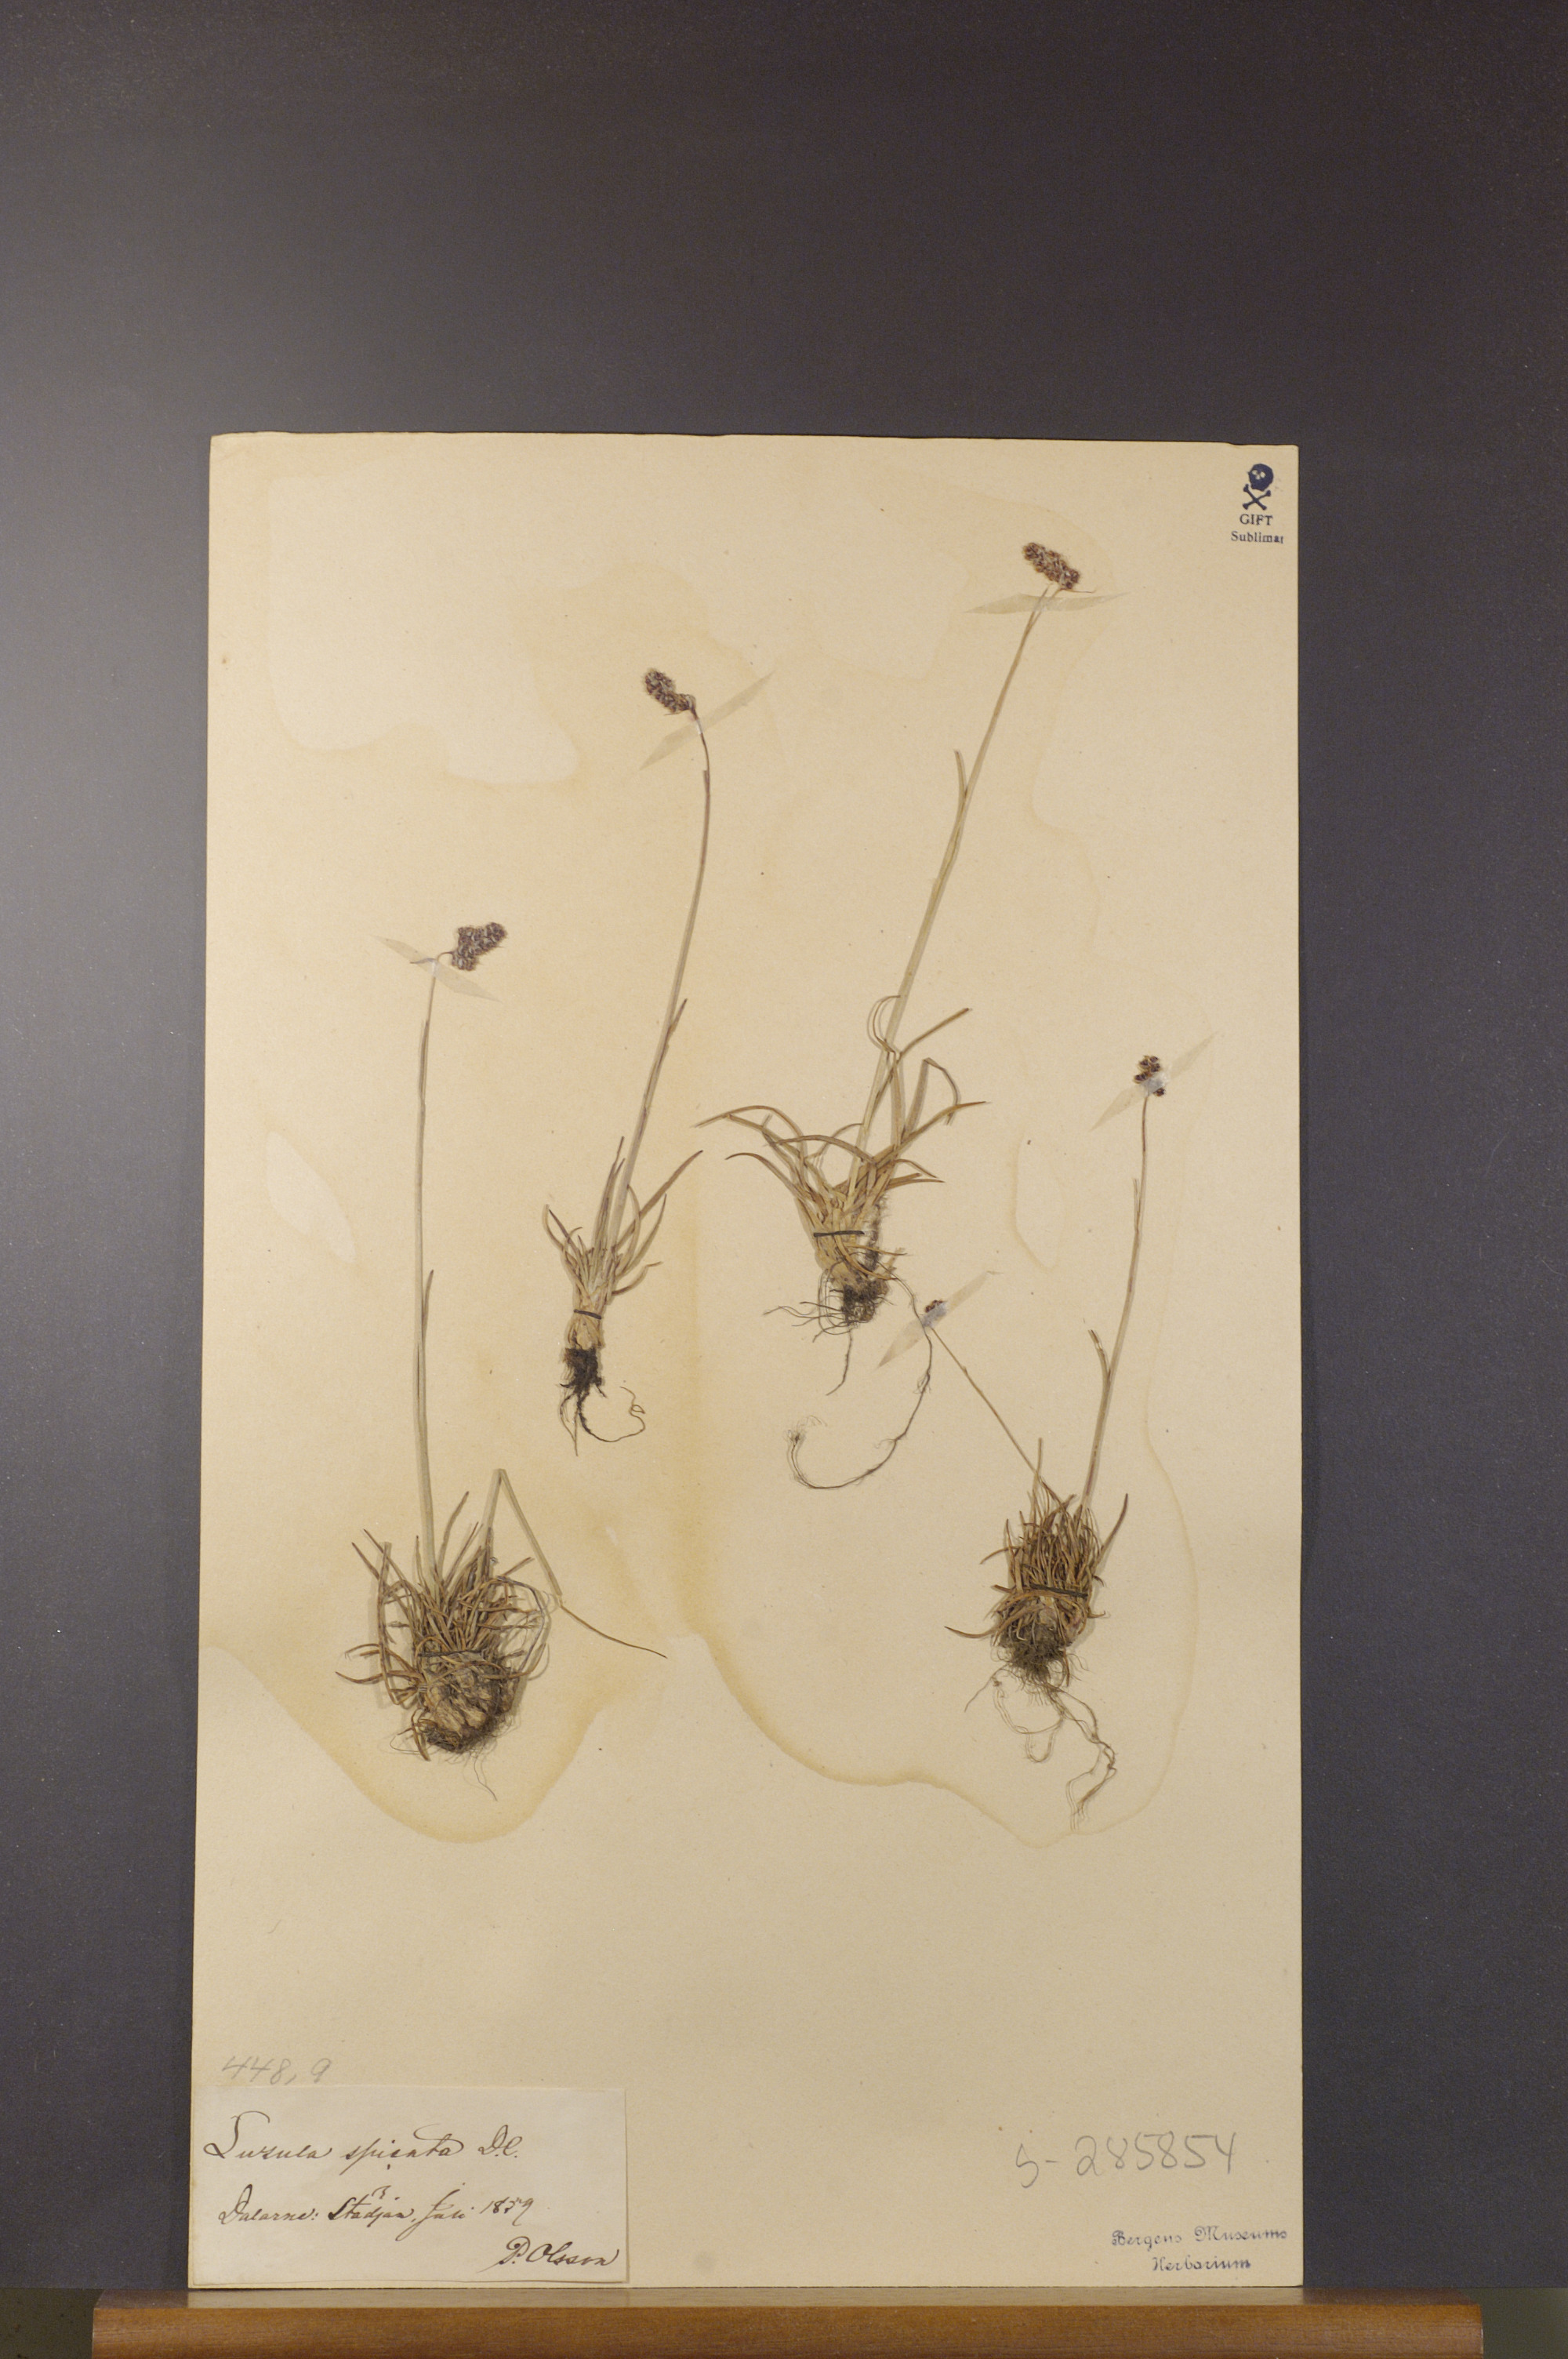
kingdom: Plantae
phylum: Tracheophyta
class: Liliopsida
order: Poales
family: Juncaceae
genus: Luzula
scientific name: Luzula spicata
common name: Spiked wood-rush
